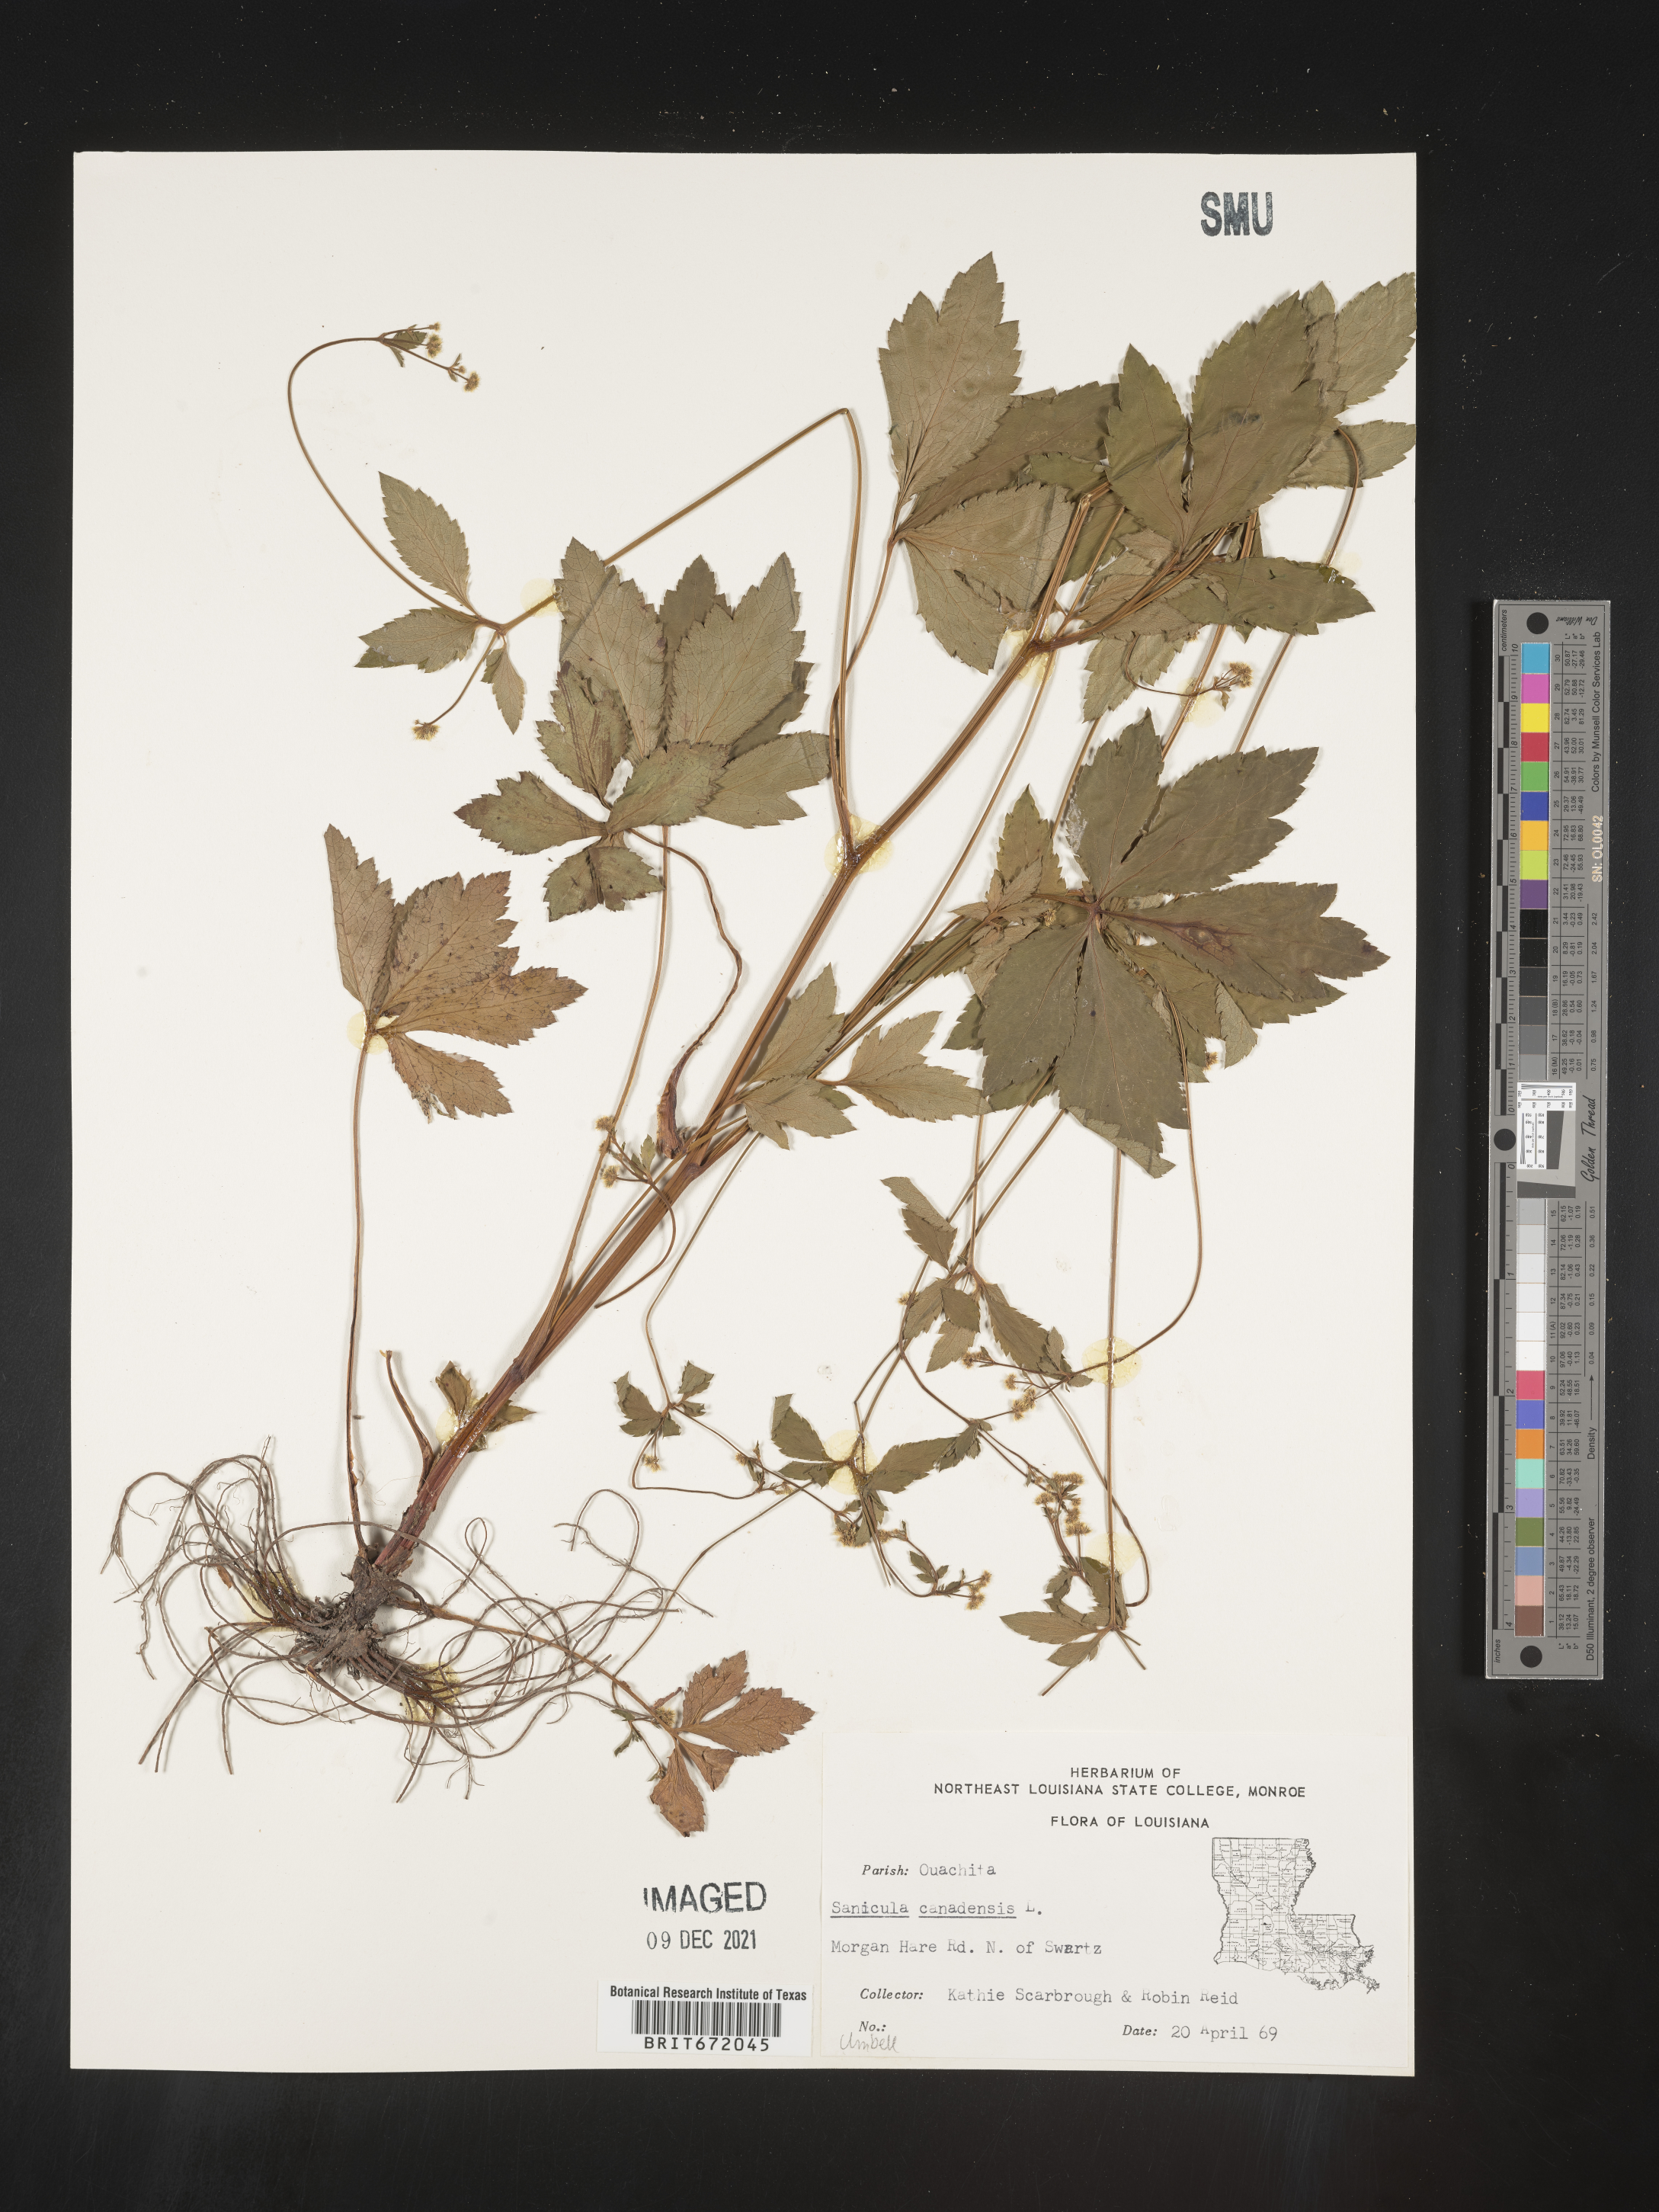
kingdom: Plantae
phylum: Tracheophyta
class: Magnoliopsida
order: Apiales
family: Apiaceae
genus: Sanicula
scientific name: Sanicula canadensis
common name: Canada sanicle
